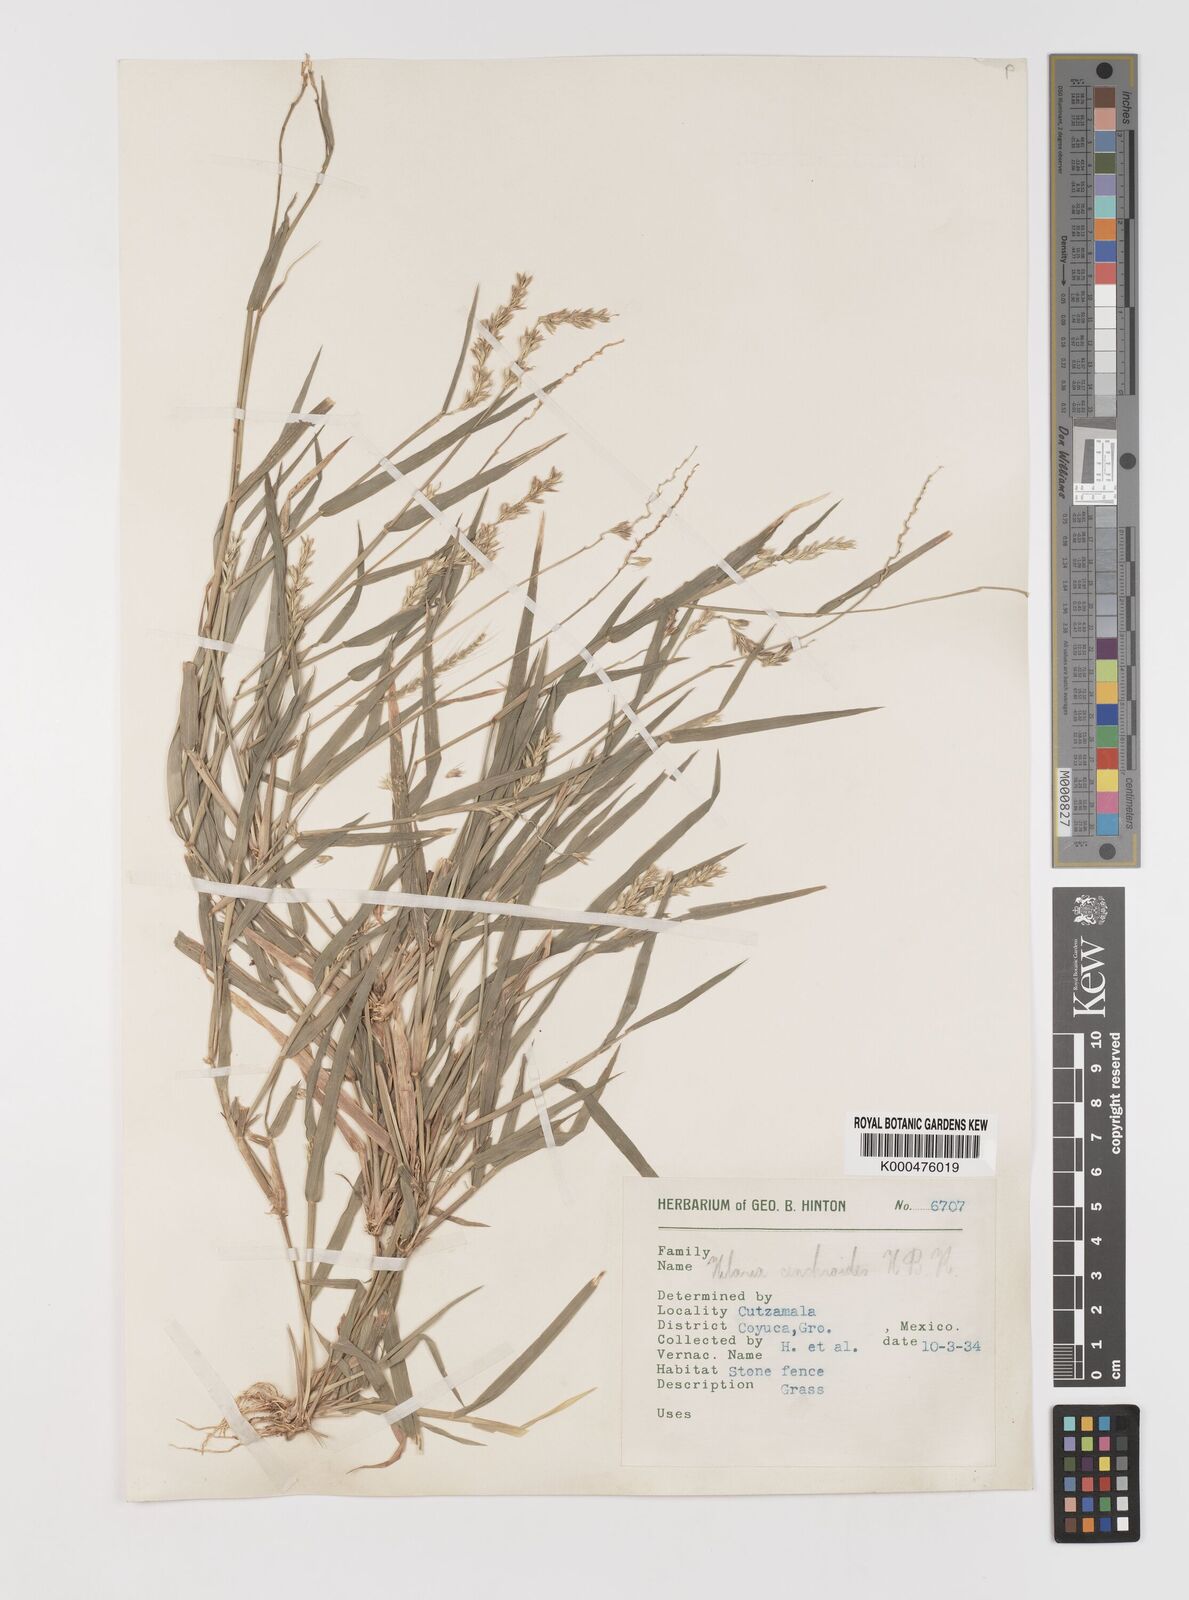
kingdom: Plantae
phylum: Tracheophyta
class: Liliopsida
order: Poales
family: Poaceae
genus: Hilaria
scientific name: Hilaria swallenii
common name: Swallen's curly-mesquite
